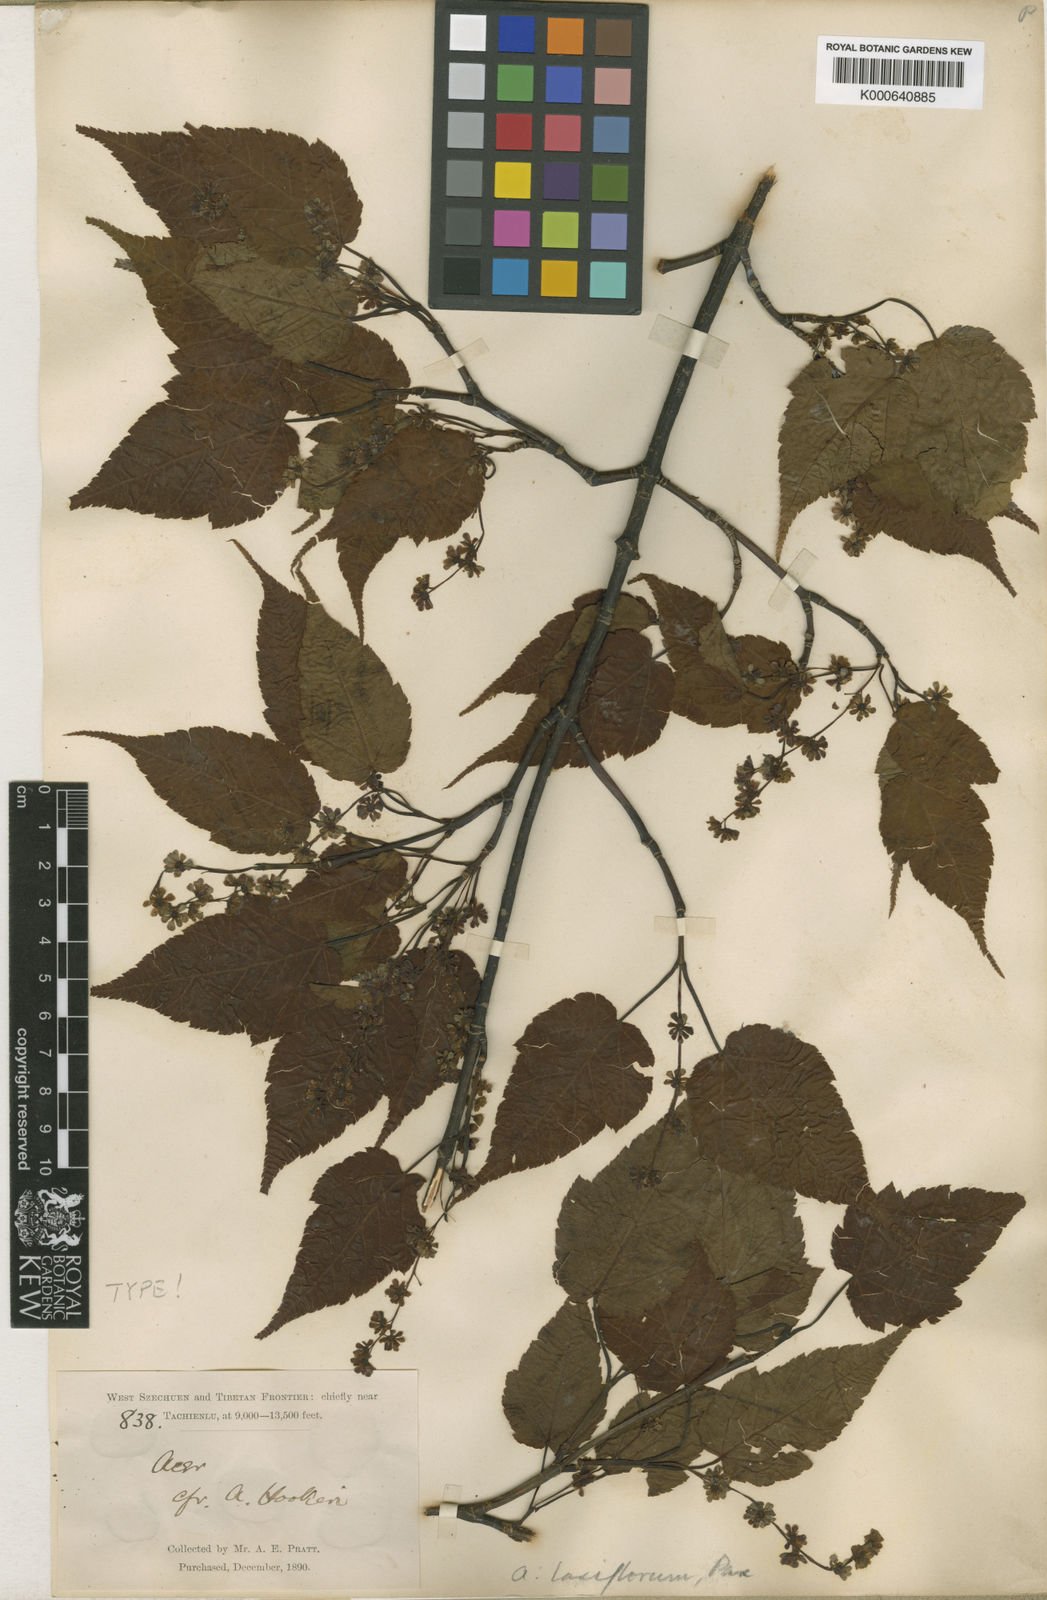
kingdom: Plantae
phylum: Tracheophyta
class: Magnoliopsida
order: Sapindales
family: Sapindaceae
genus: Acer
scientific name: Acer laxiflorum
